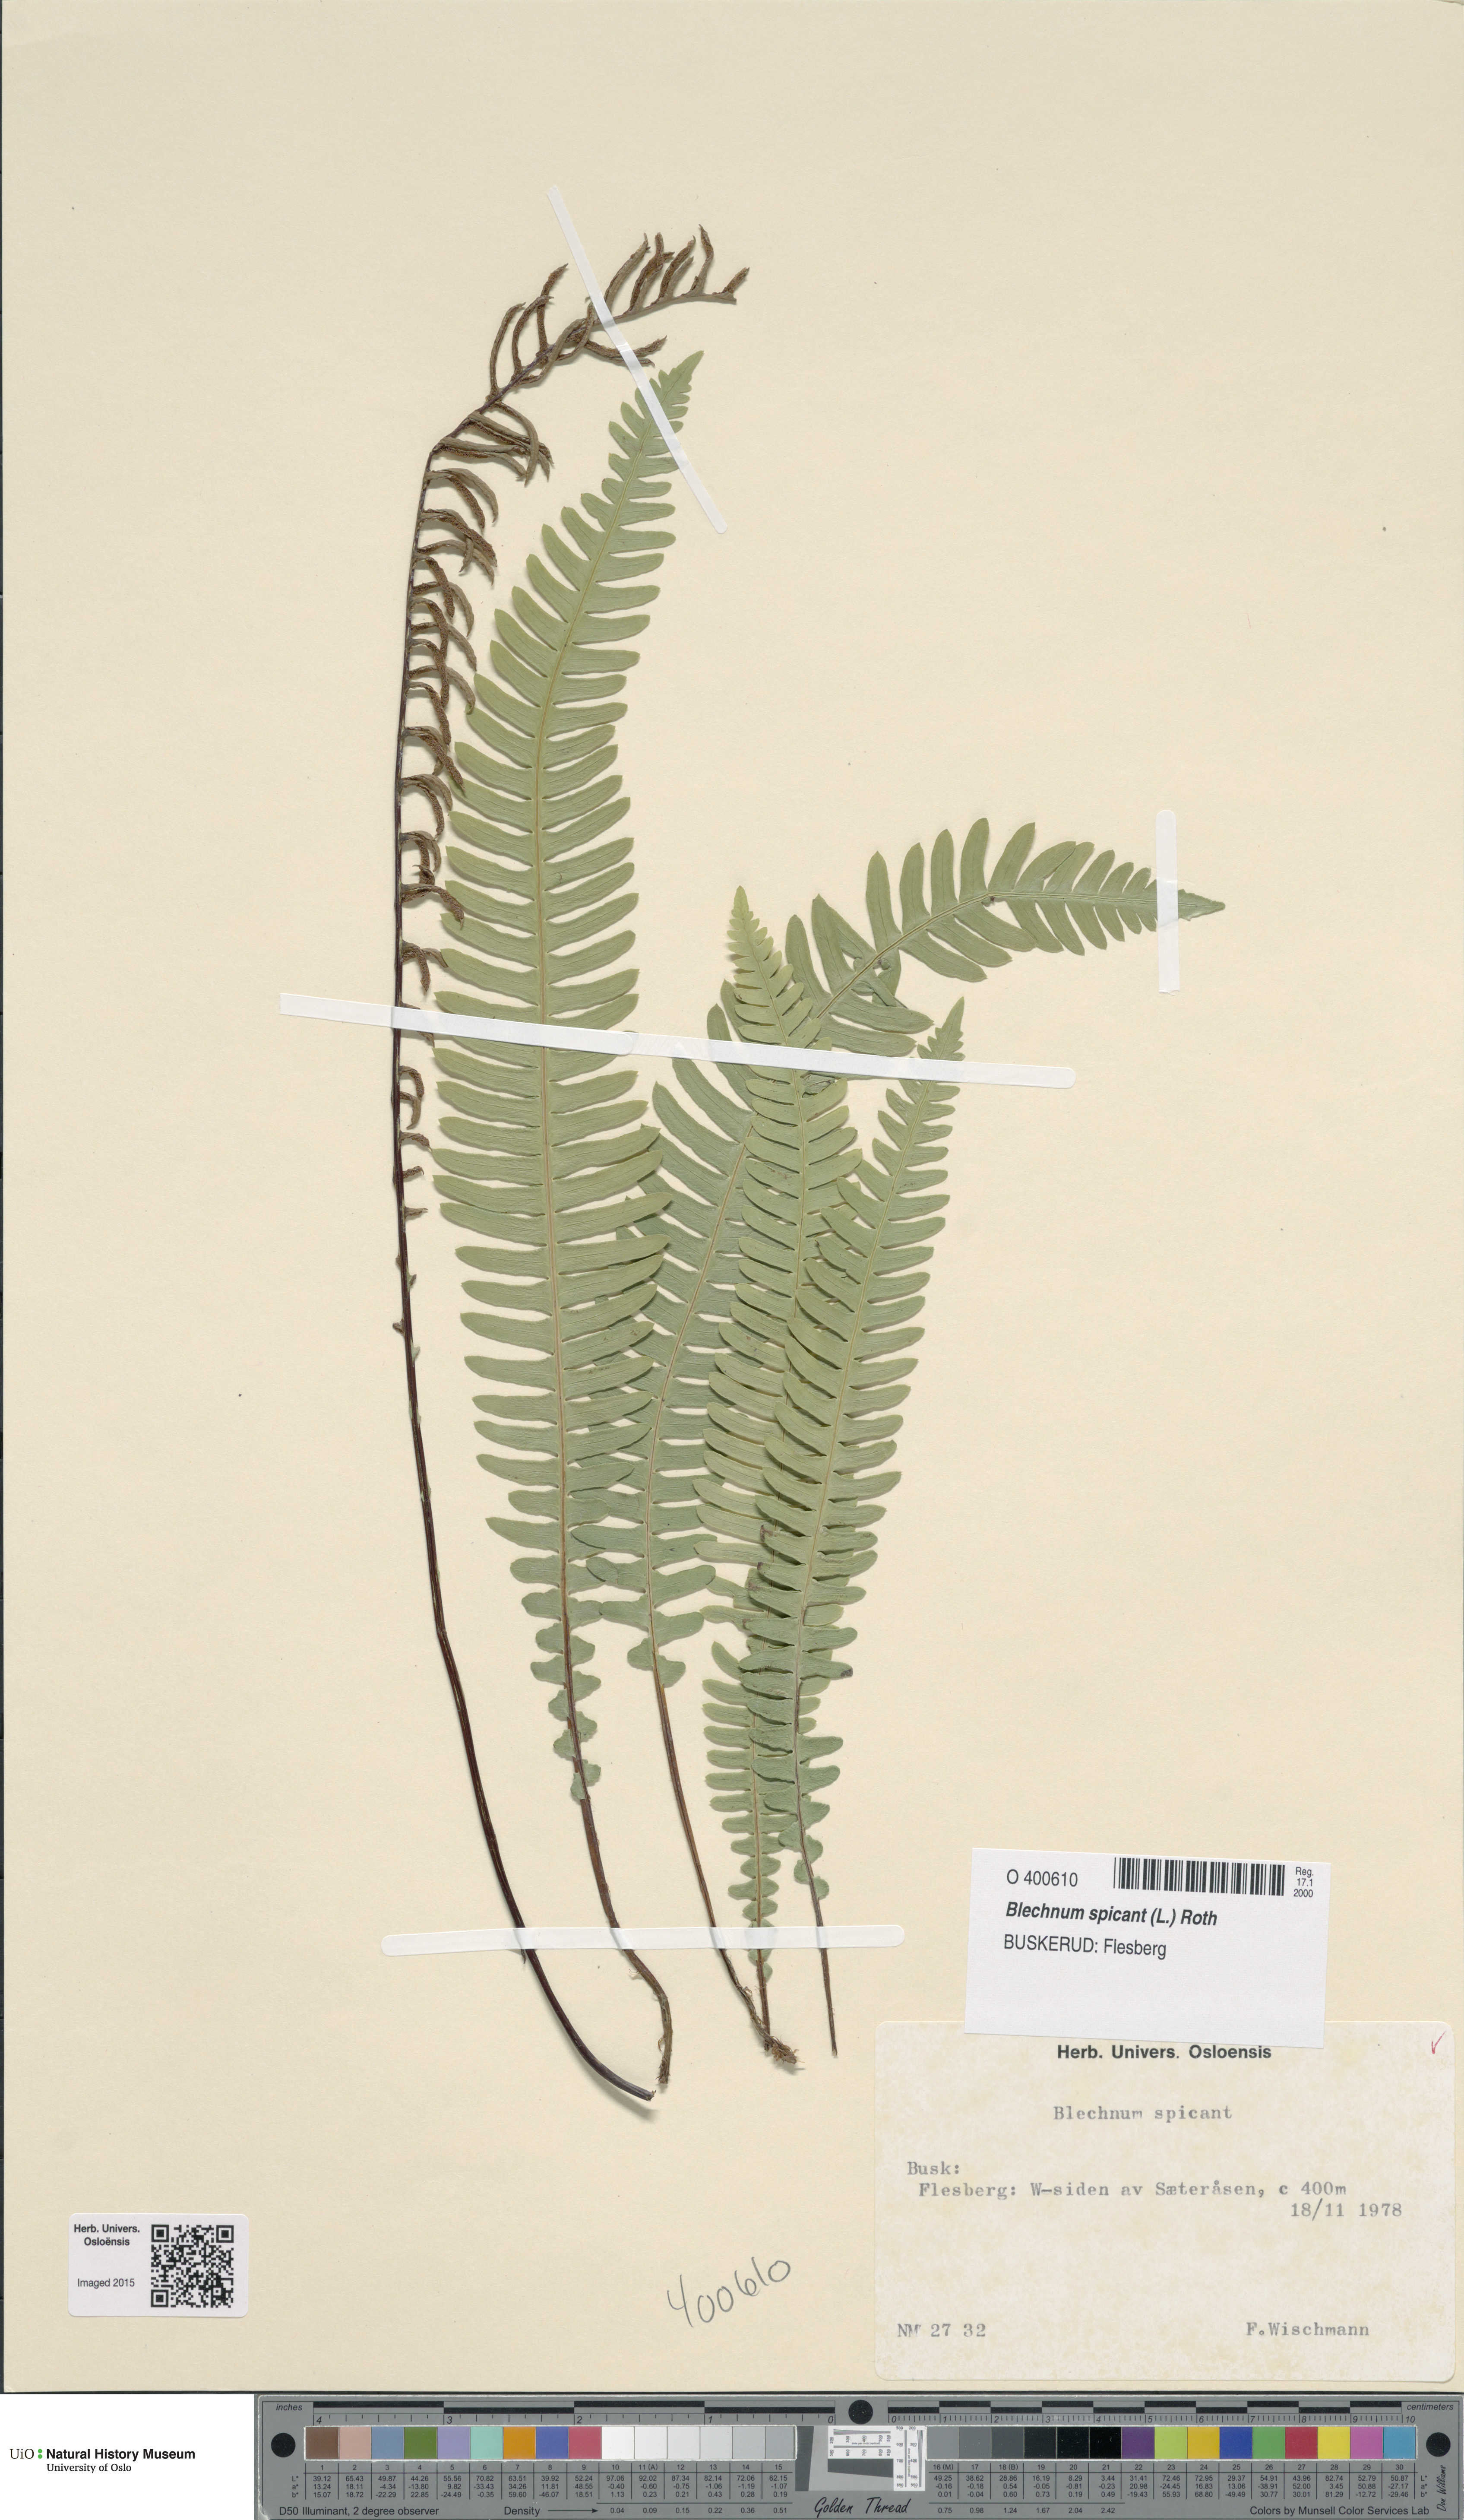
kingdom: Plantae
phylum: Tracheophyta
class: Polypodiopsida
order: Polypodiales
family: Blechnaceae
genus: Struthiopteris
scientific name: Struthiopteris spicant
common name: Deer fern
